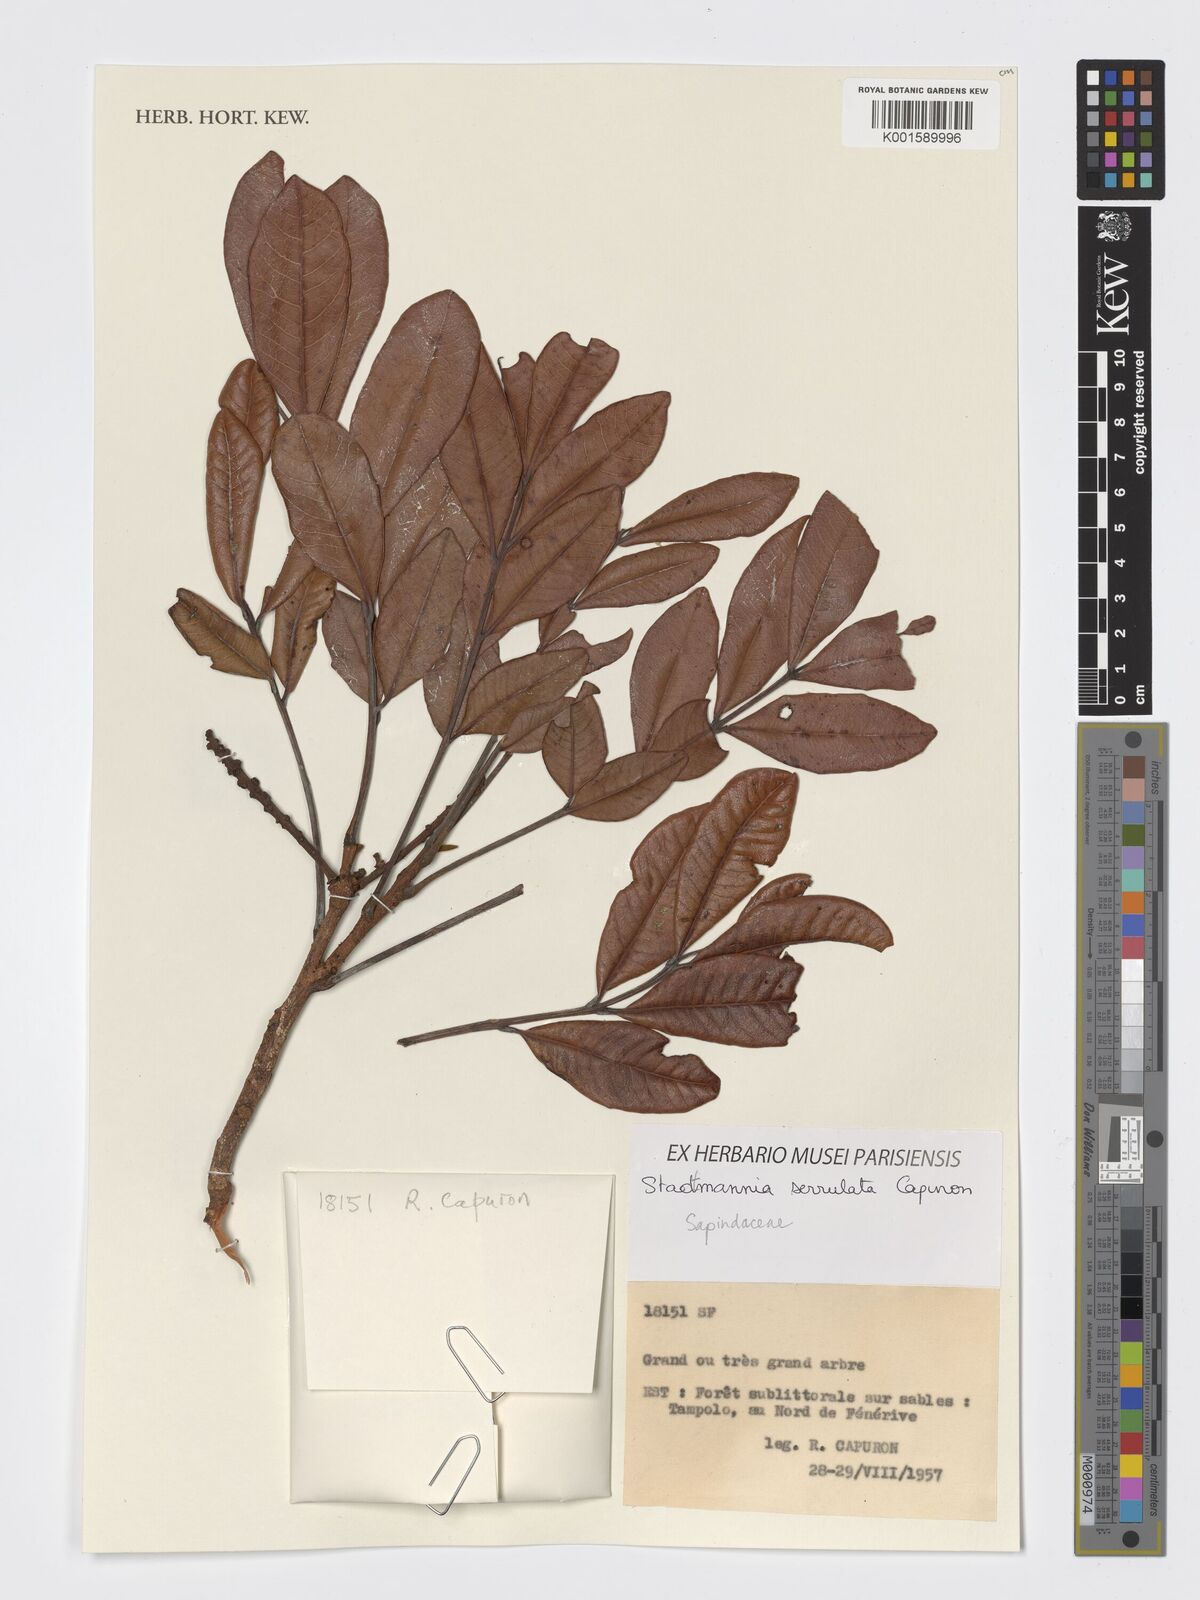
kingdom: Plantae
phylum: Tracheophyta
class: Magnoliopsida
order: Sapindales
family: Sapindaceae
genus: Stadtmannia
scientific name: Stadtmannia serrulata
